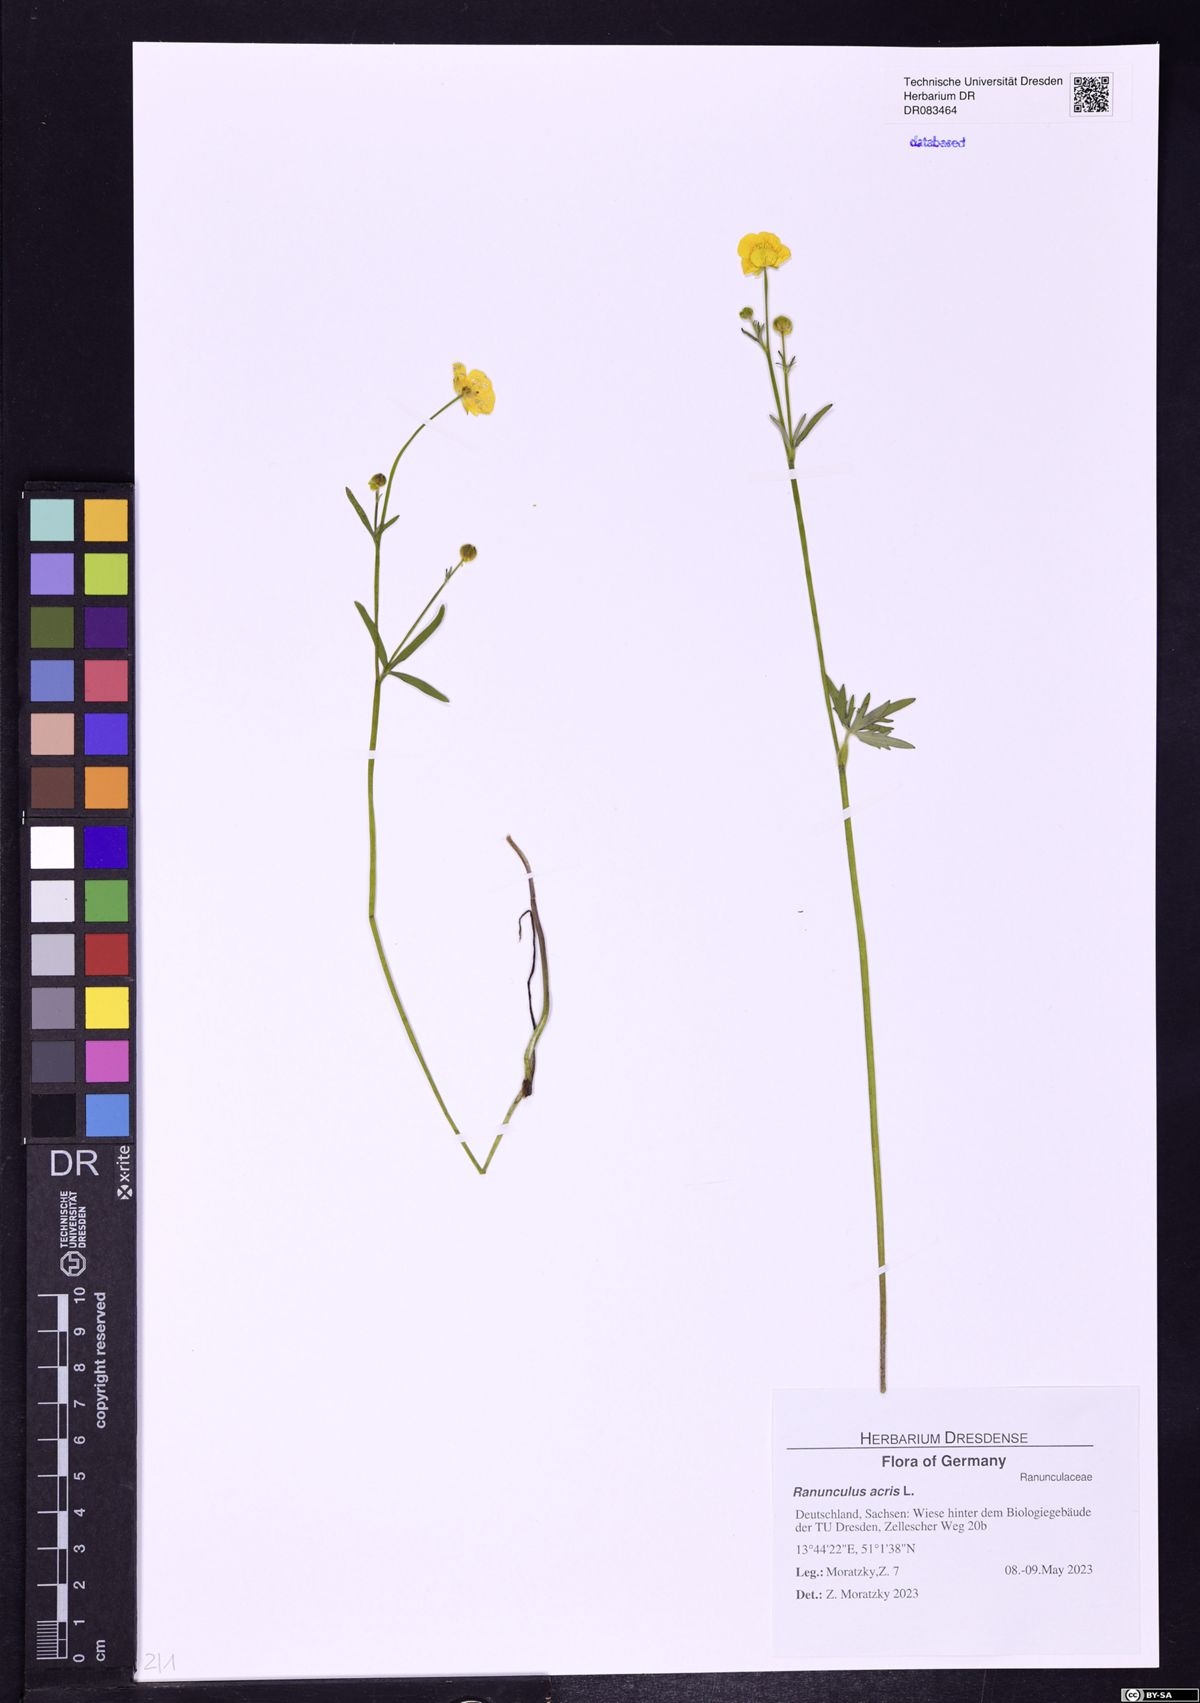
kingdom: Plantae
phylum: Tracheophyta
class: Magnoliopsida
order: Ranunculales
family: Ranunculaceae
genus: Ranunculus
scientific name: Ranunculus acris
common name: Meadow buttercup
